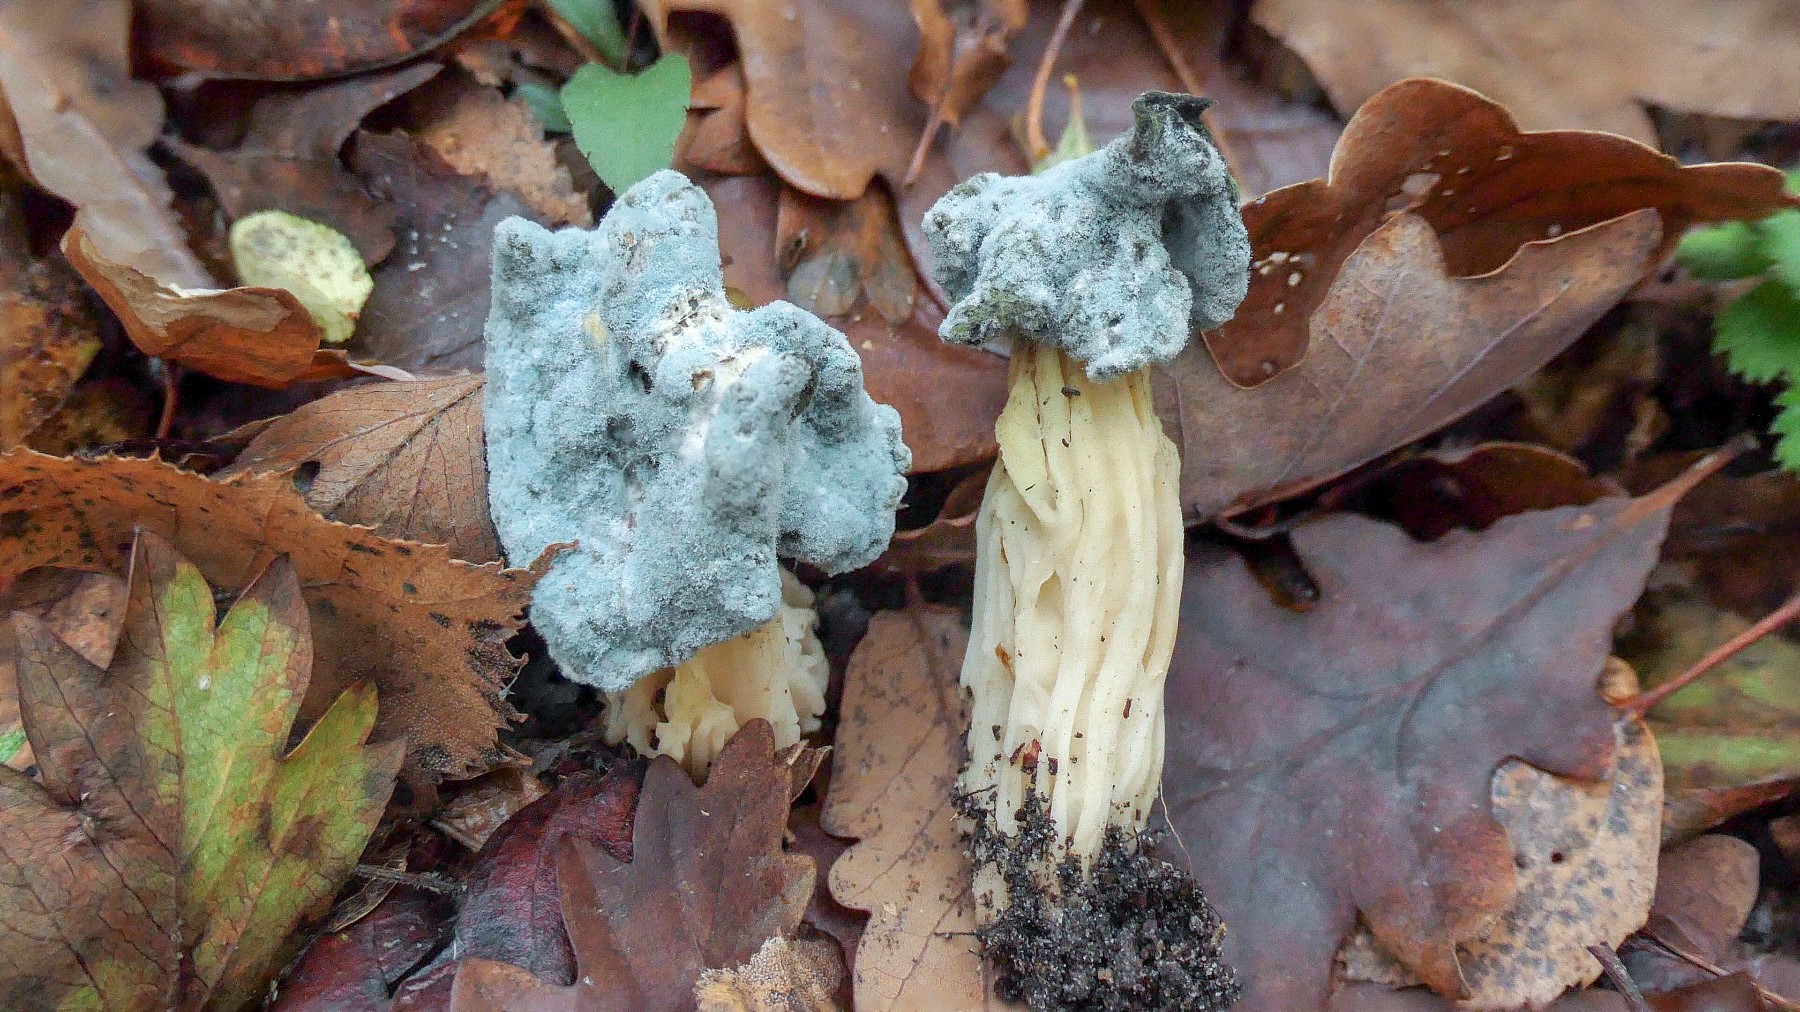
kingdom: Fungi
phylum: Ascomycota
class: Eurotiomycetes
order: Eurotiales
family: Aspergillaceae
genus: Penicillium
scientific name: Penicillium
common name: penselskimmel
